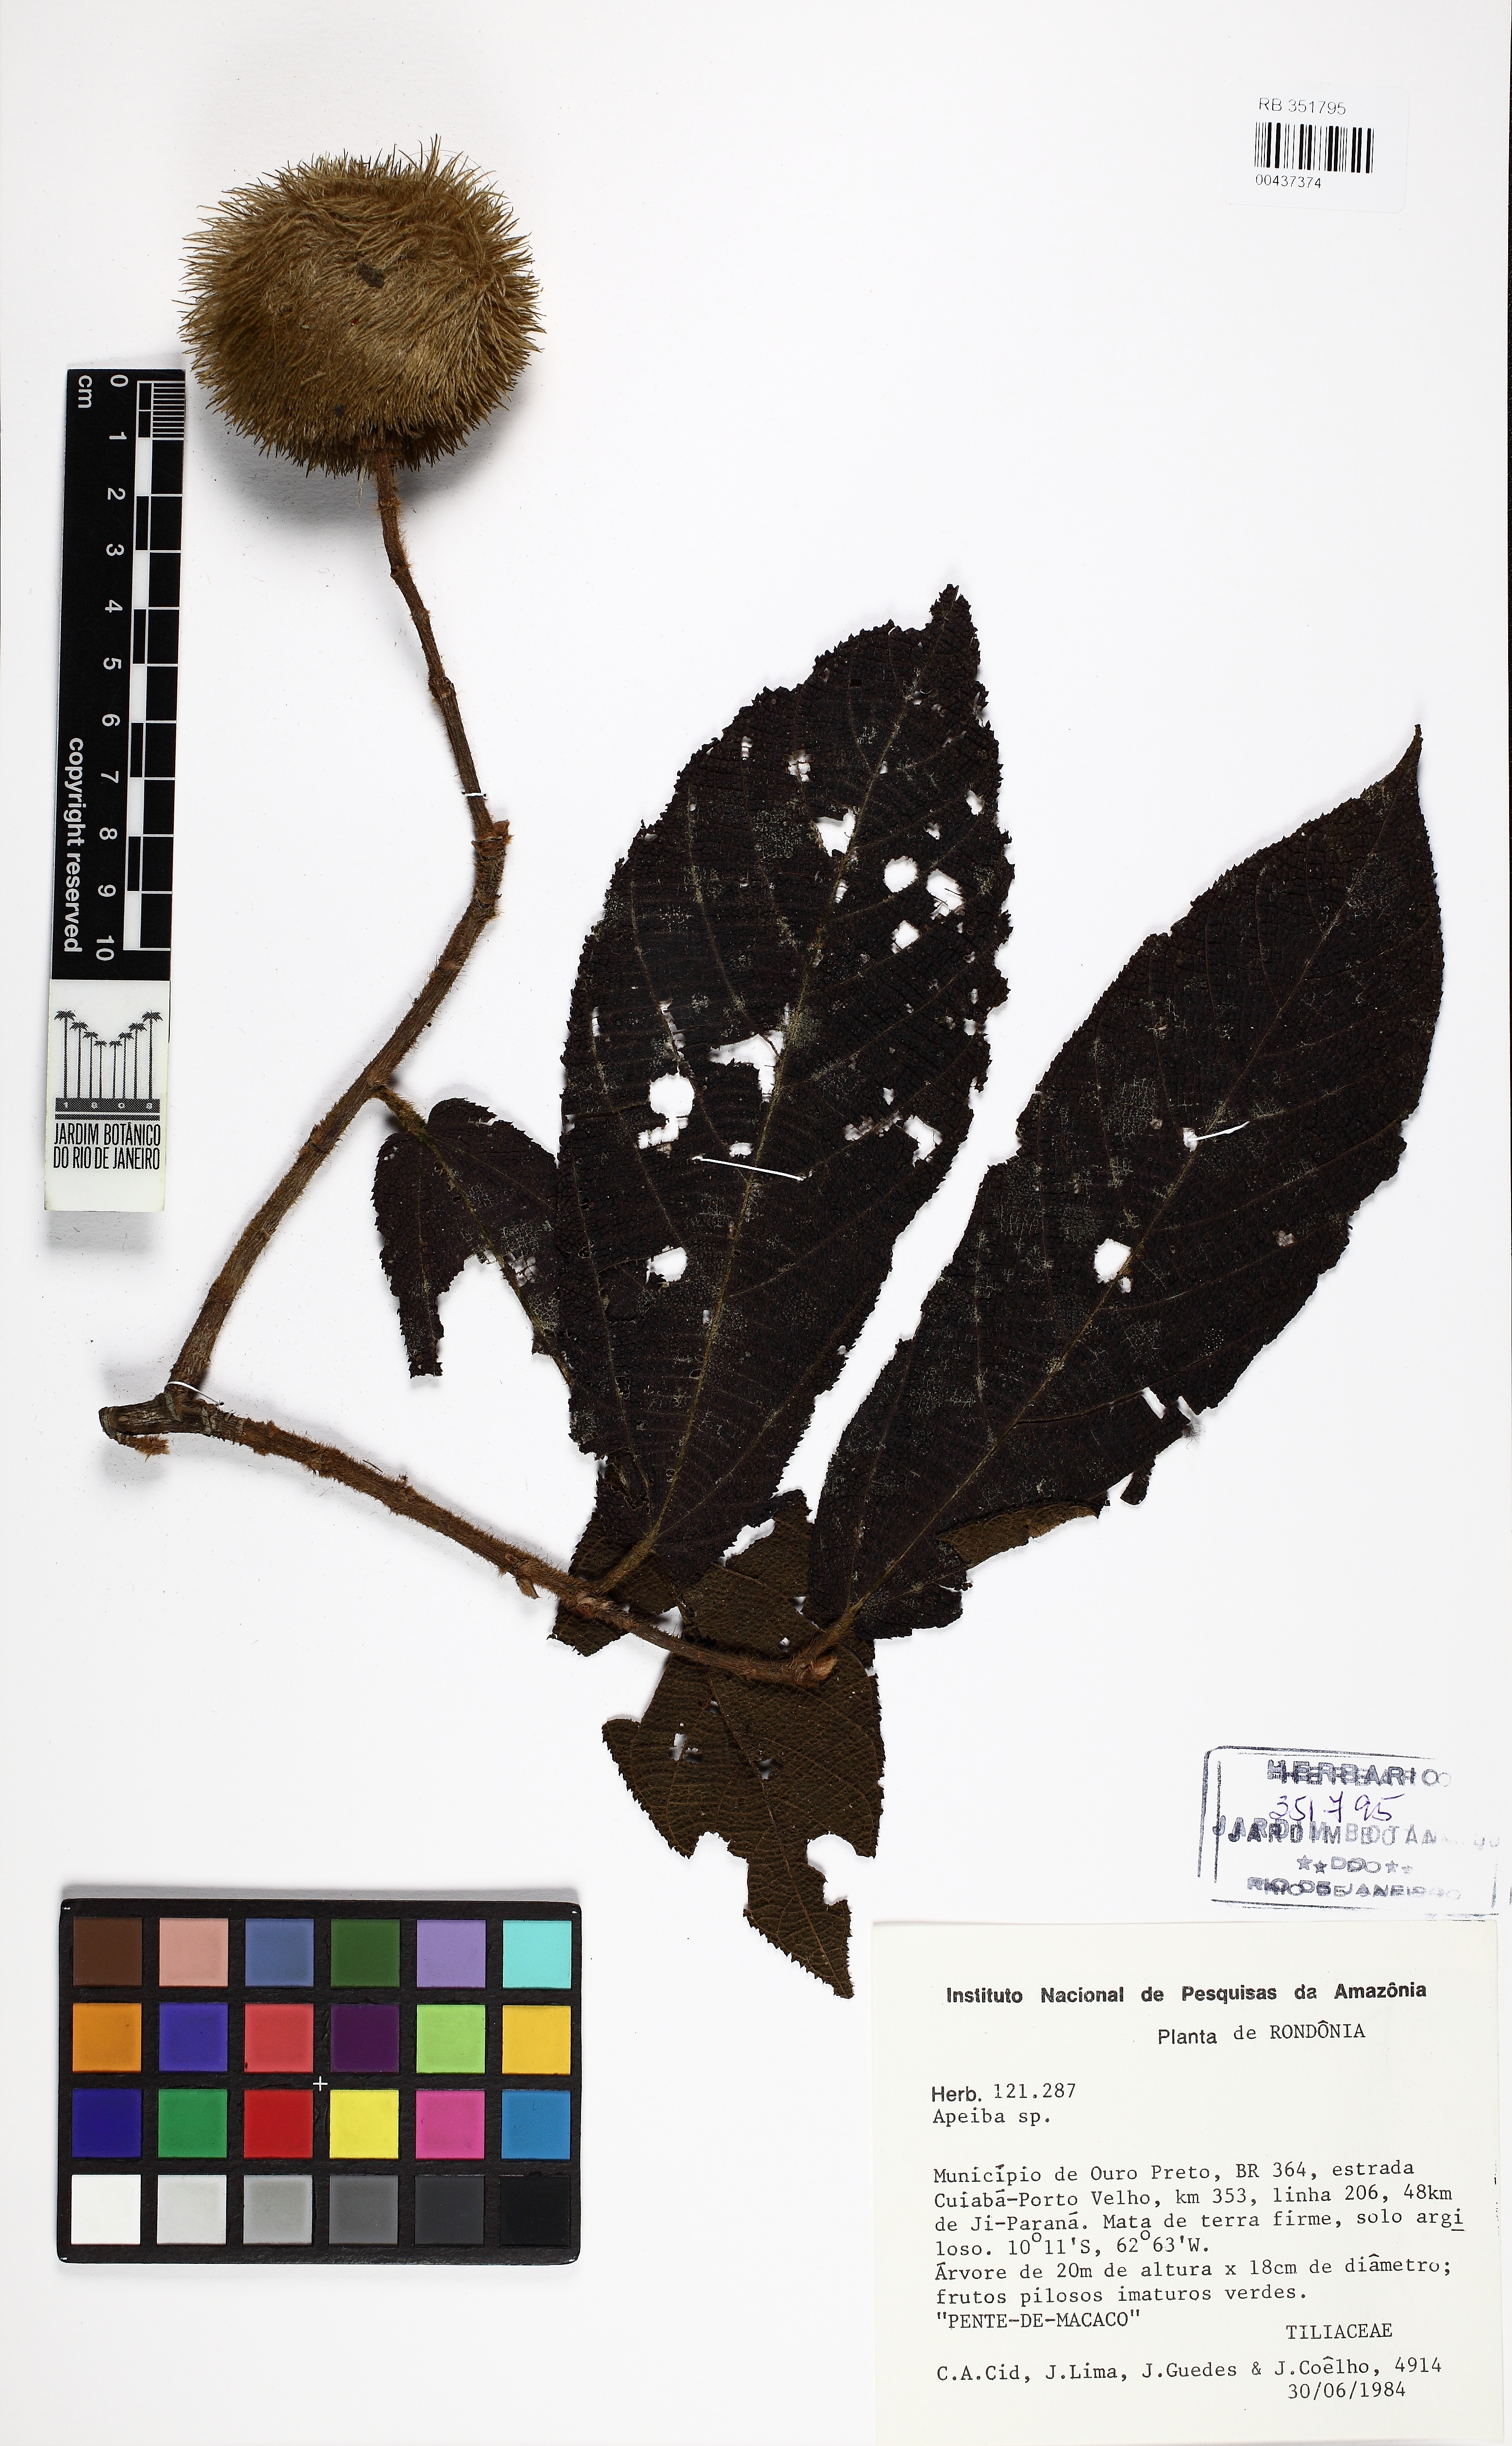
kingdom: Plantae
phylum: Tracheophyta
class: Magnoliopsida
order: Malvales
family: Malvaceae
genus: Apeiba
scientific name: Apeiba albiflora
